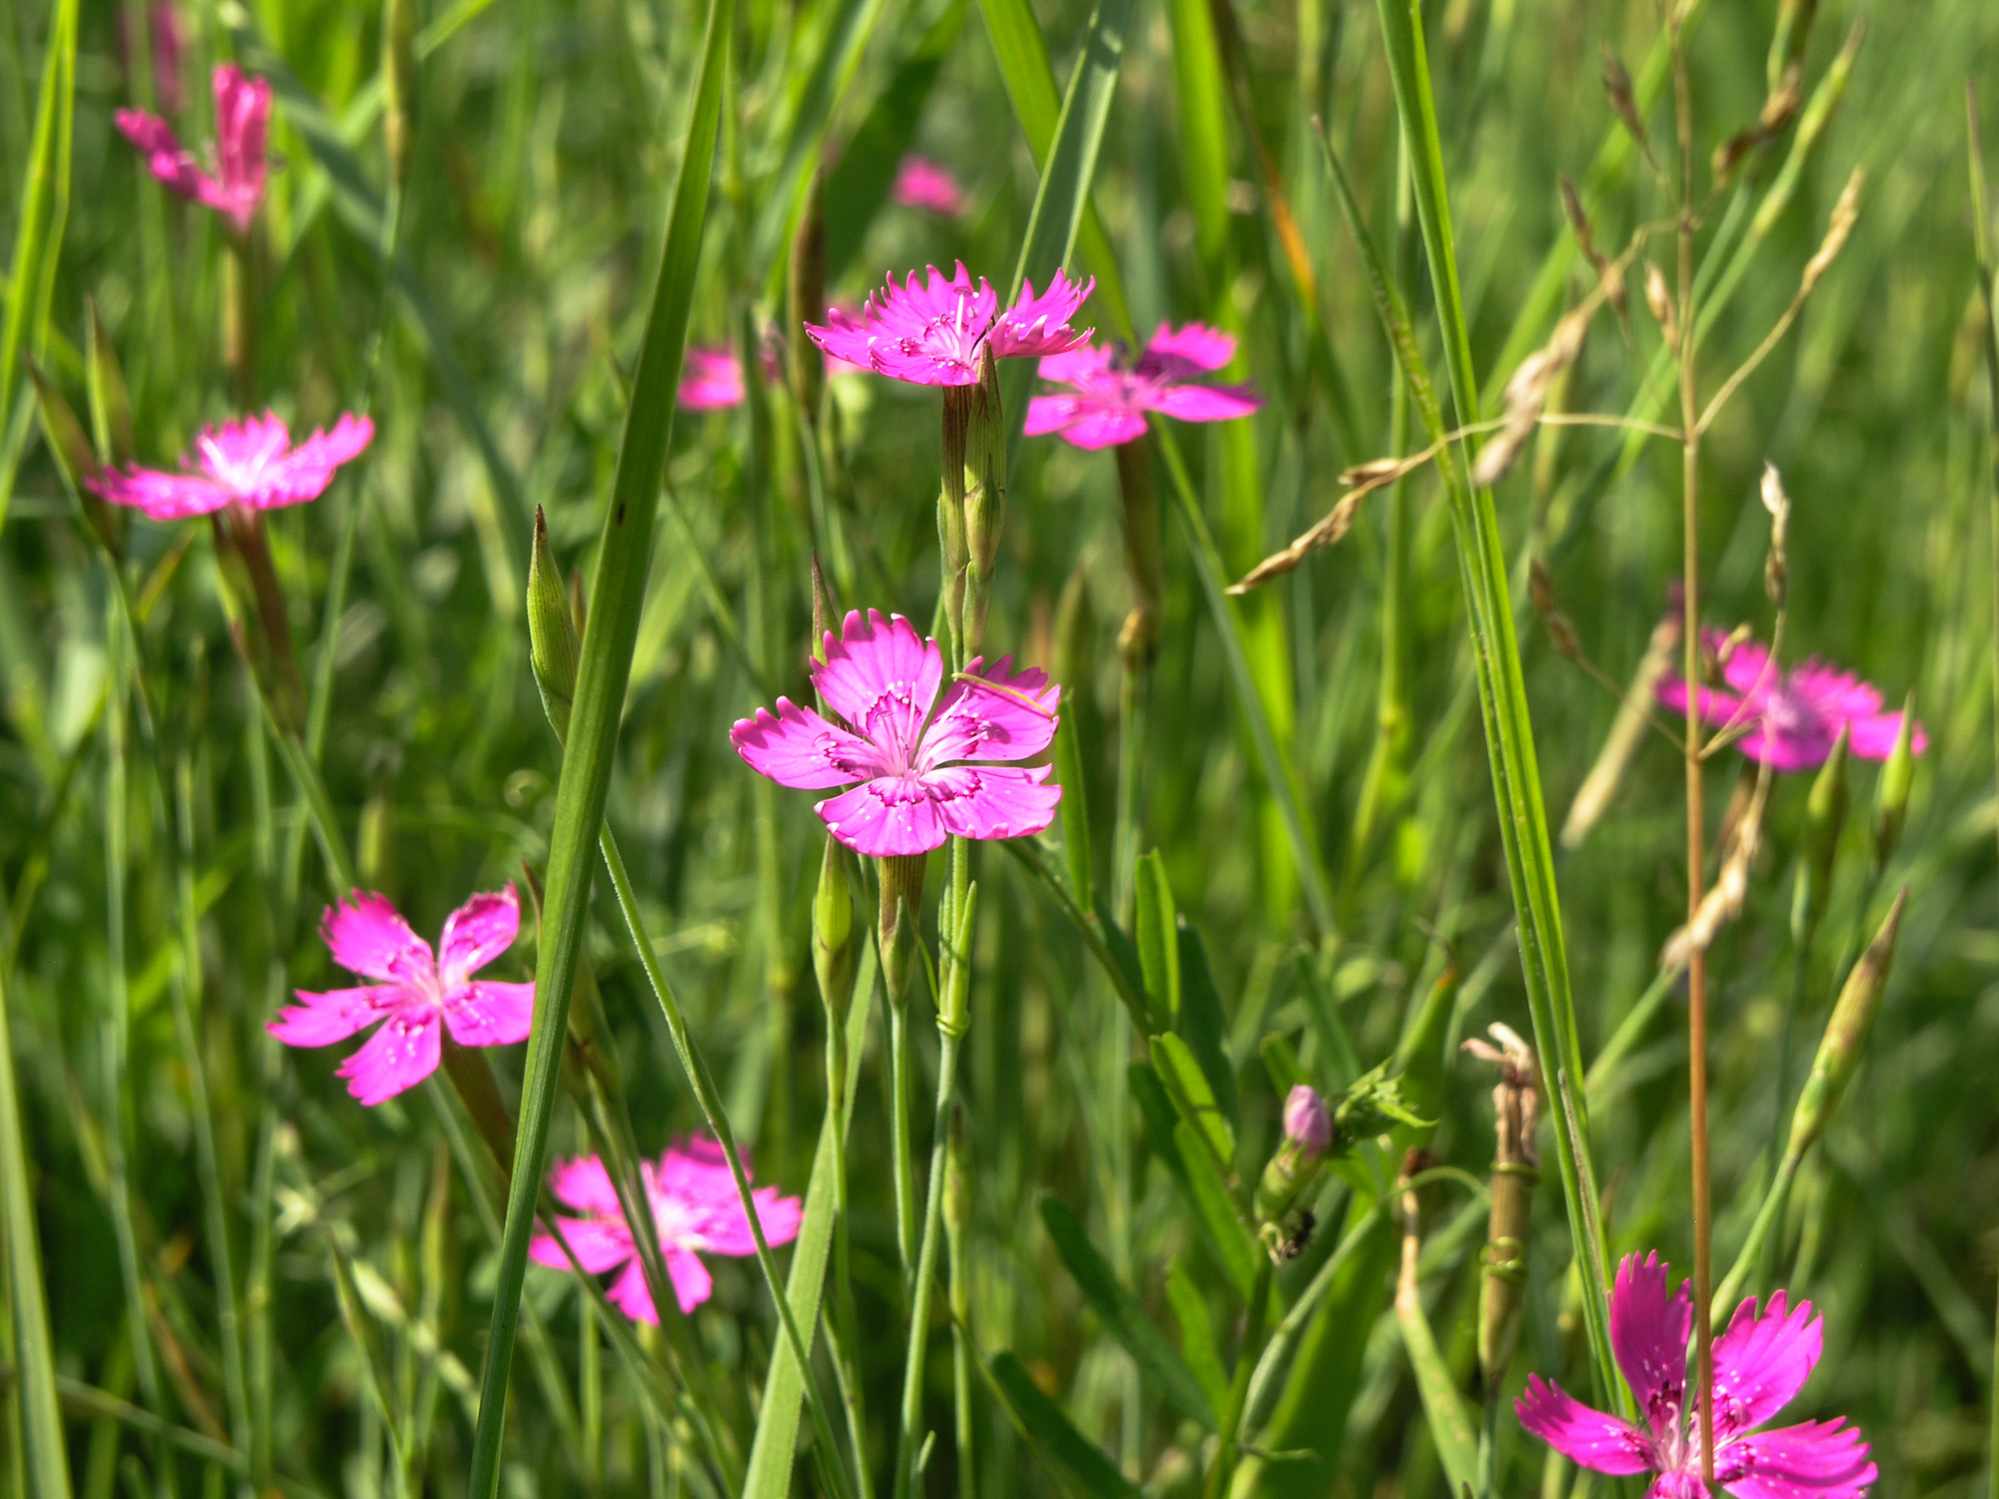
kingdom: Plantae
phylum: Tracheophyta
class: Magnoliopsida
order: Caryophyllales
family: Caryophyllaceae
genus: Dianthus
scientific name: Dianthus deltoides
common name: Maiden pink
